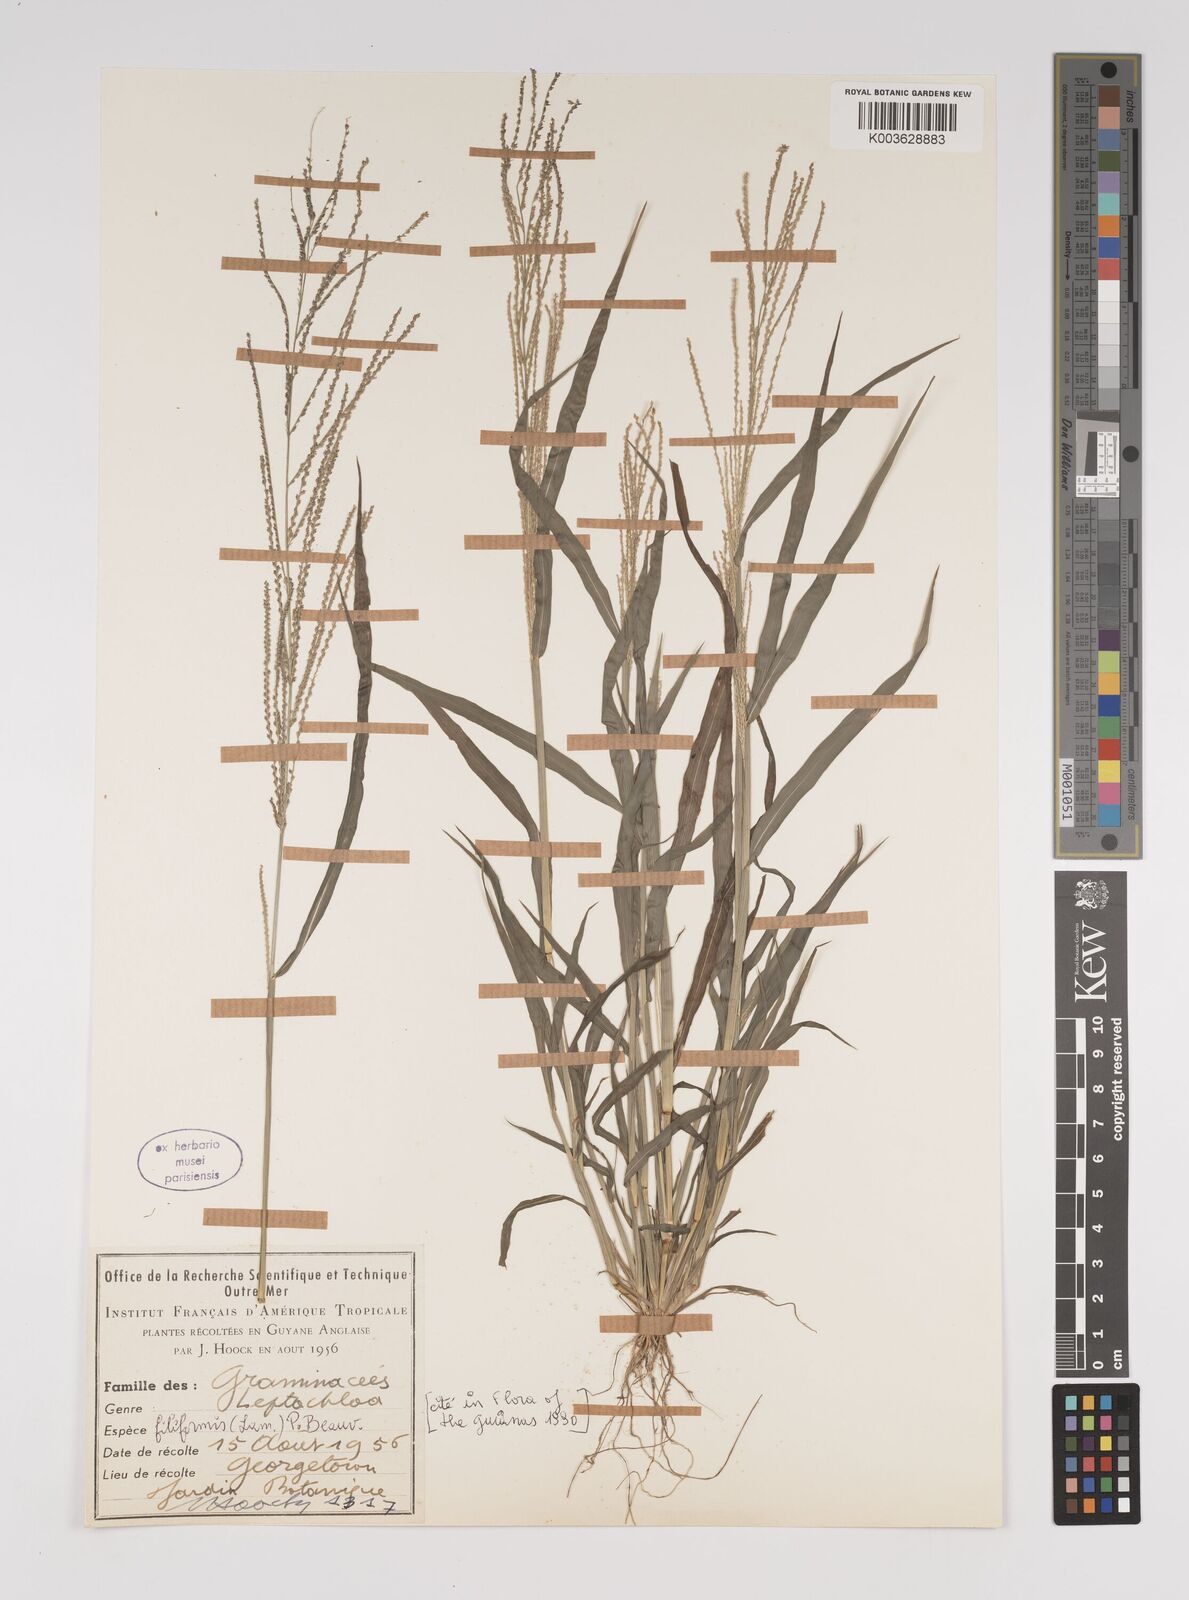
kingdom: Plantae
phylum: Tracheophyta
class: Liliopsida
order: Poales
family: Poaceae
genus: Leptochloa
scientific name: Leptochloa panicea
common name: Mucronate sprangletop
